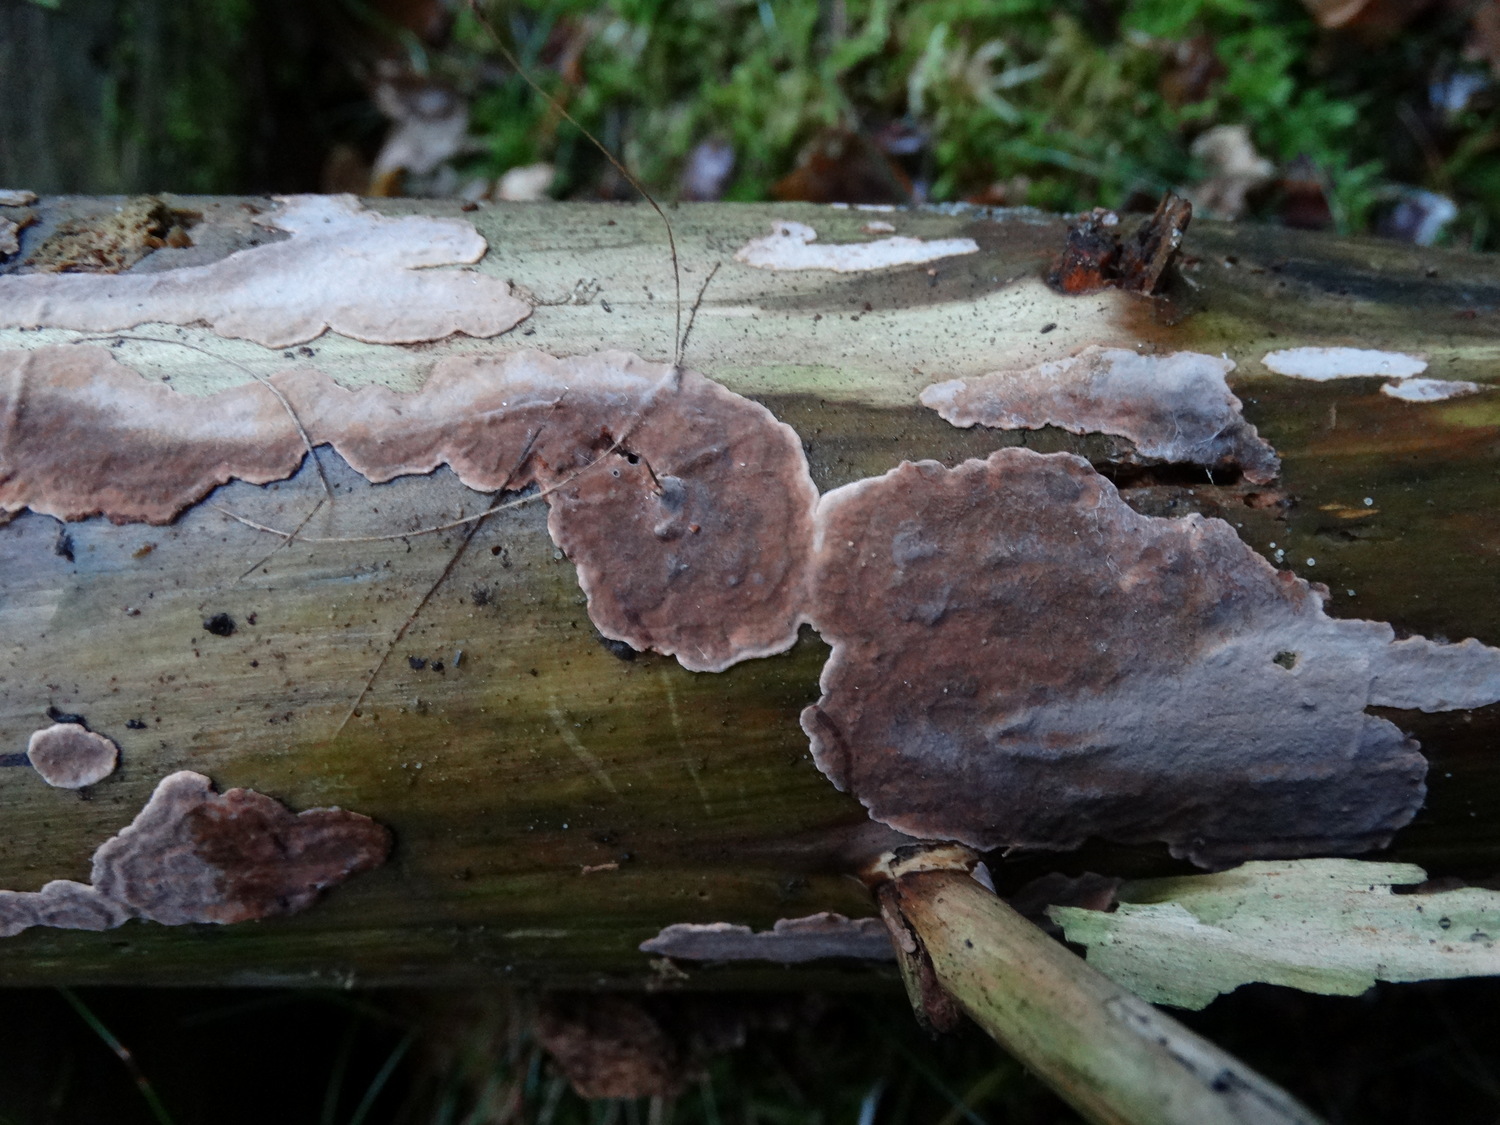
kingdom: Fungi
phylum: Basidiomycota
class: Agaricomycetes
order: Russulales
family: Echinodontiaceae
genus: Amylostereum
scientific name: Amylostereum chailletii
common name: gran-lædersvamp
